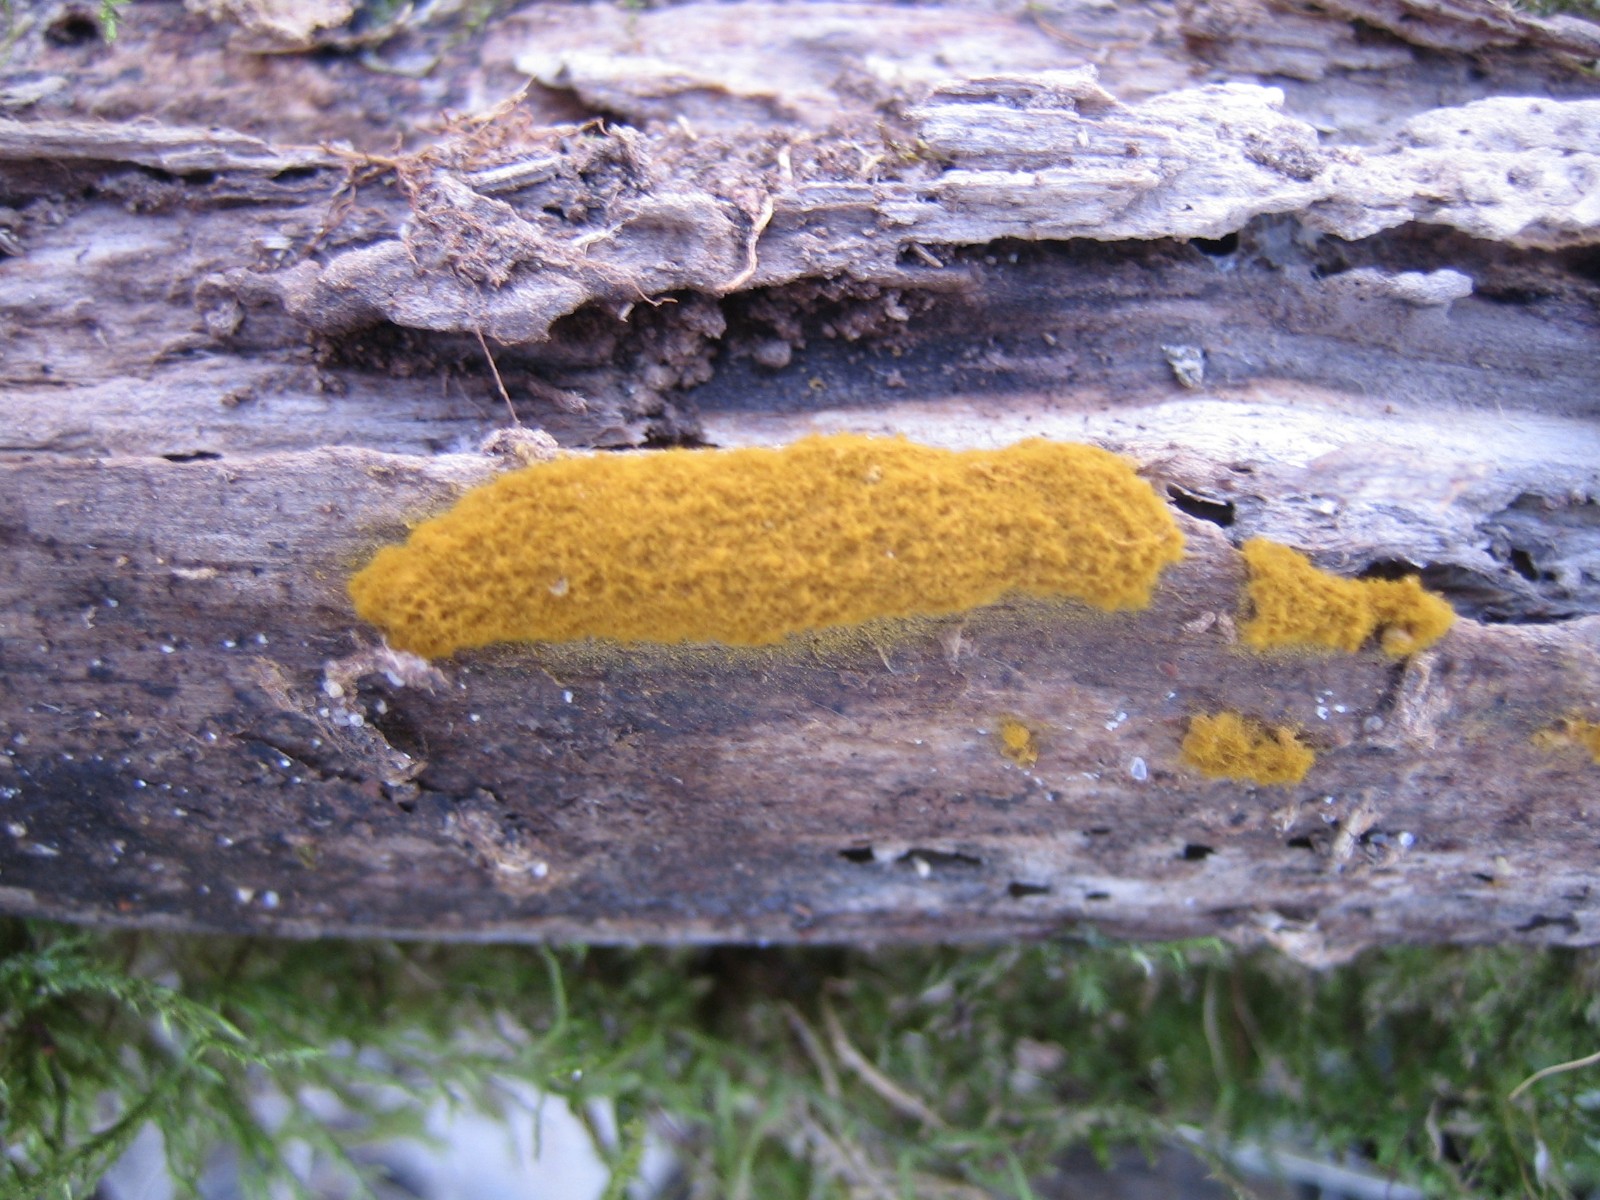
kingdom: Protozoa
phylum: Mycetozoa
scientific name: Mycetozoa
